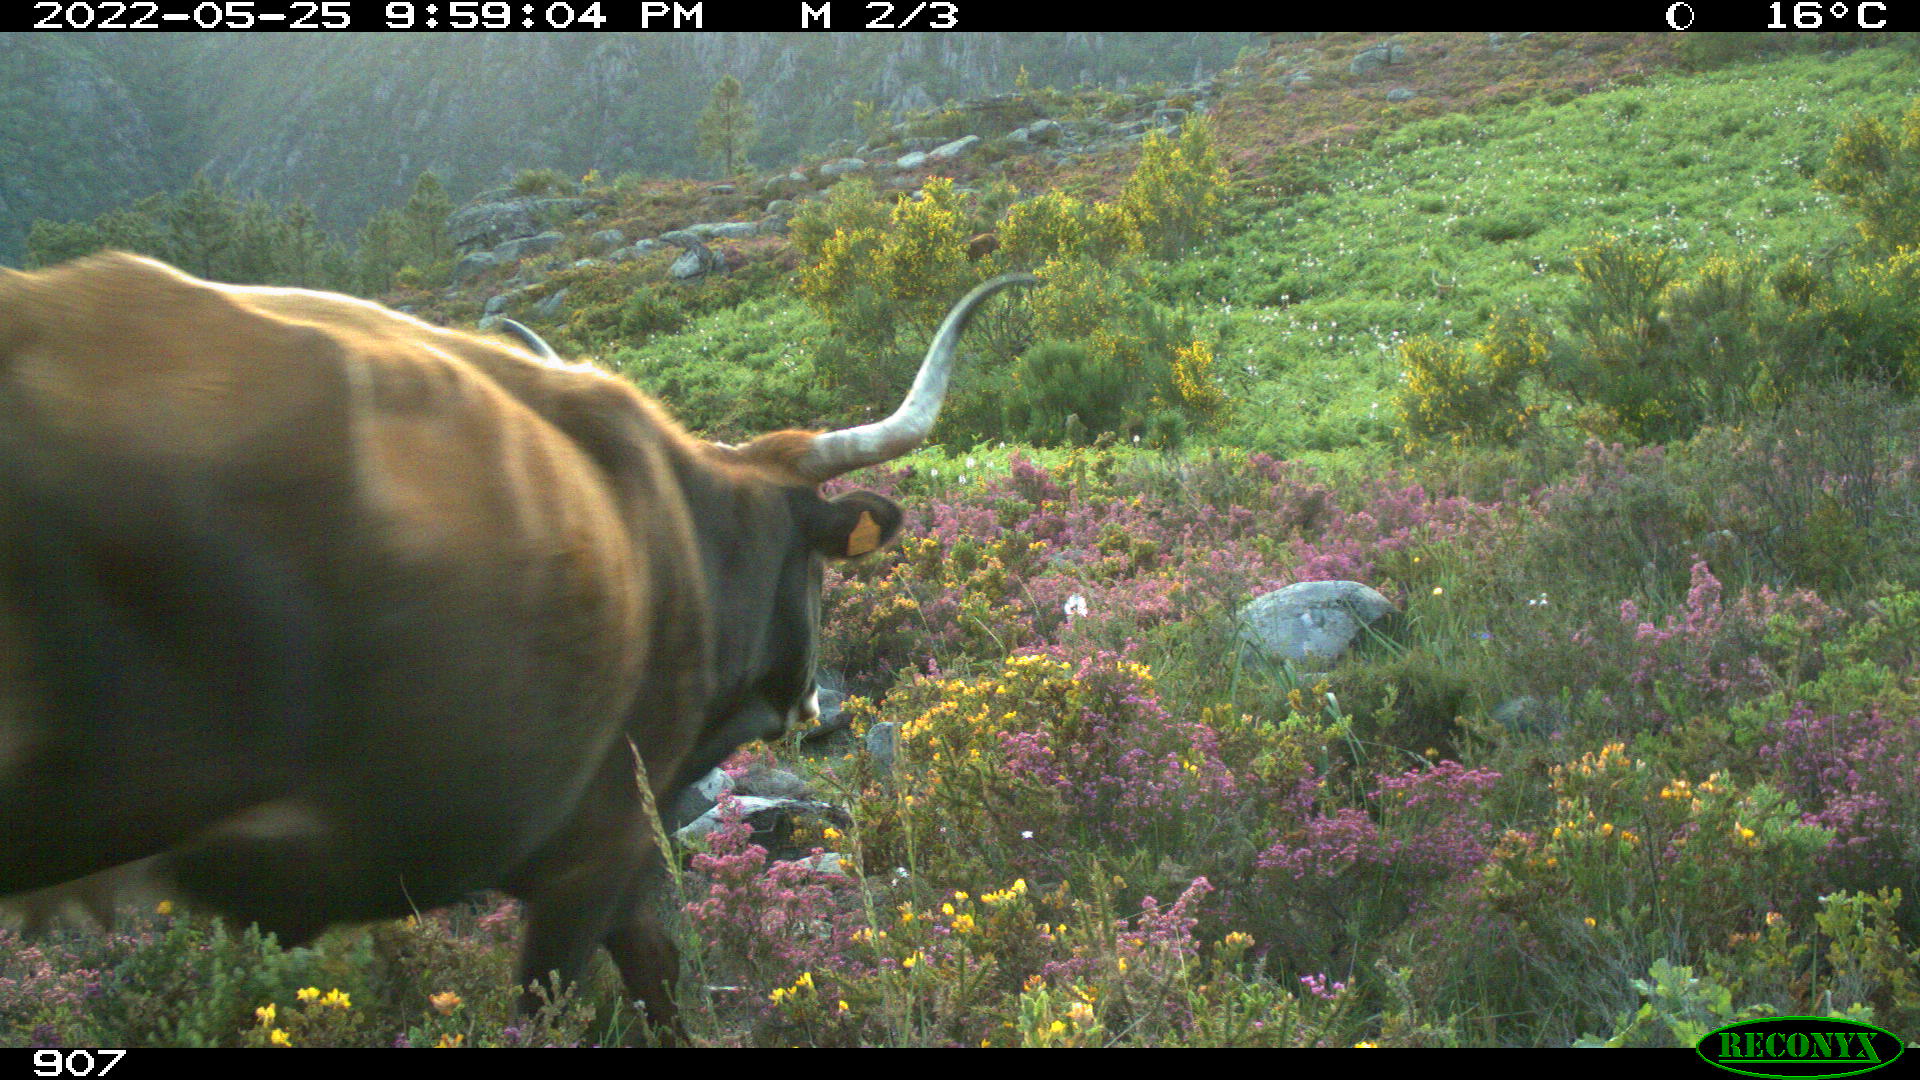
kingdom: Animalia
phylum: Chordata
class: Mammalia
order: Artiodactyla
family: Bovidae
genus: Bos
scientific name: Bos taurus
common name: Domesticated cattle
